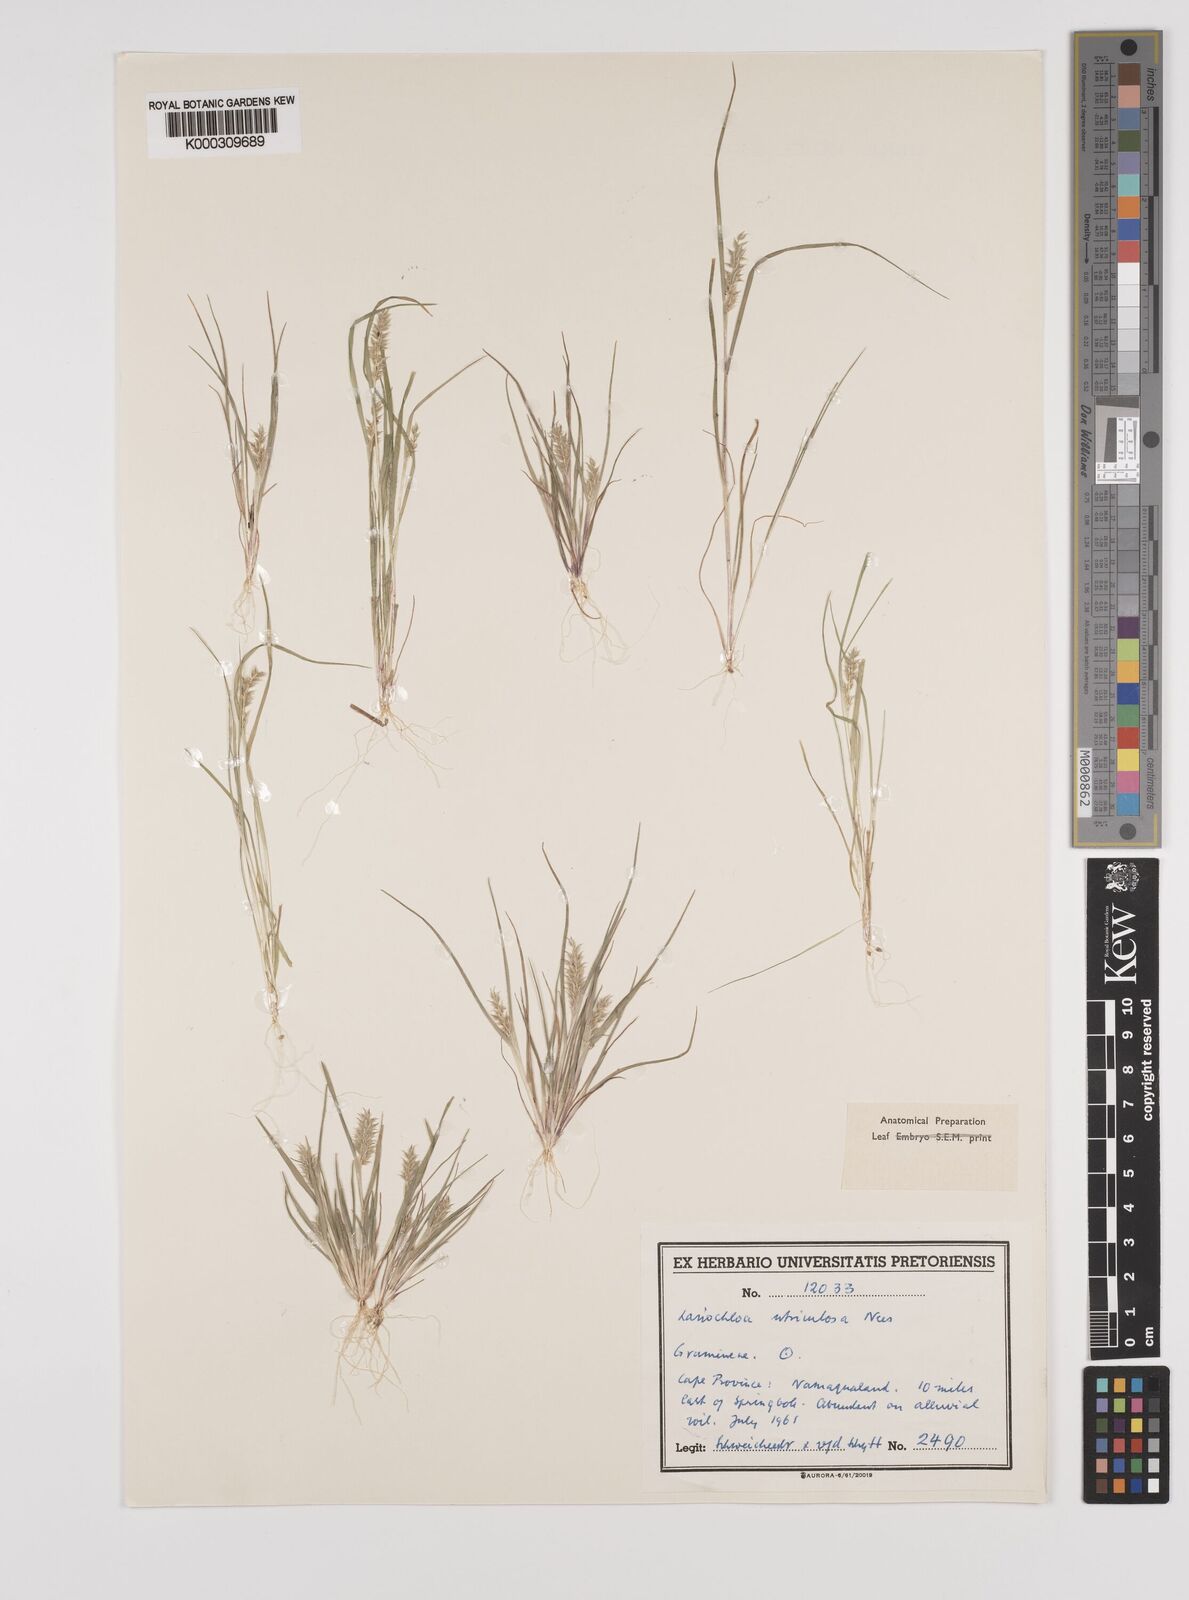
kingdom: Plantae
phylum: Tracheophyta
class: Liliopsida
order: Poales
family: Poaceae
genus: Tribolium
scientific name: Tribolium utriculosum
